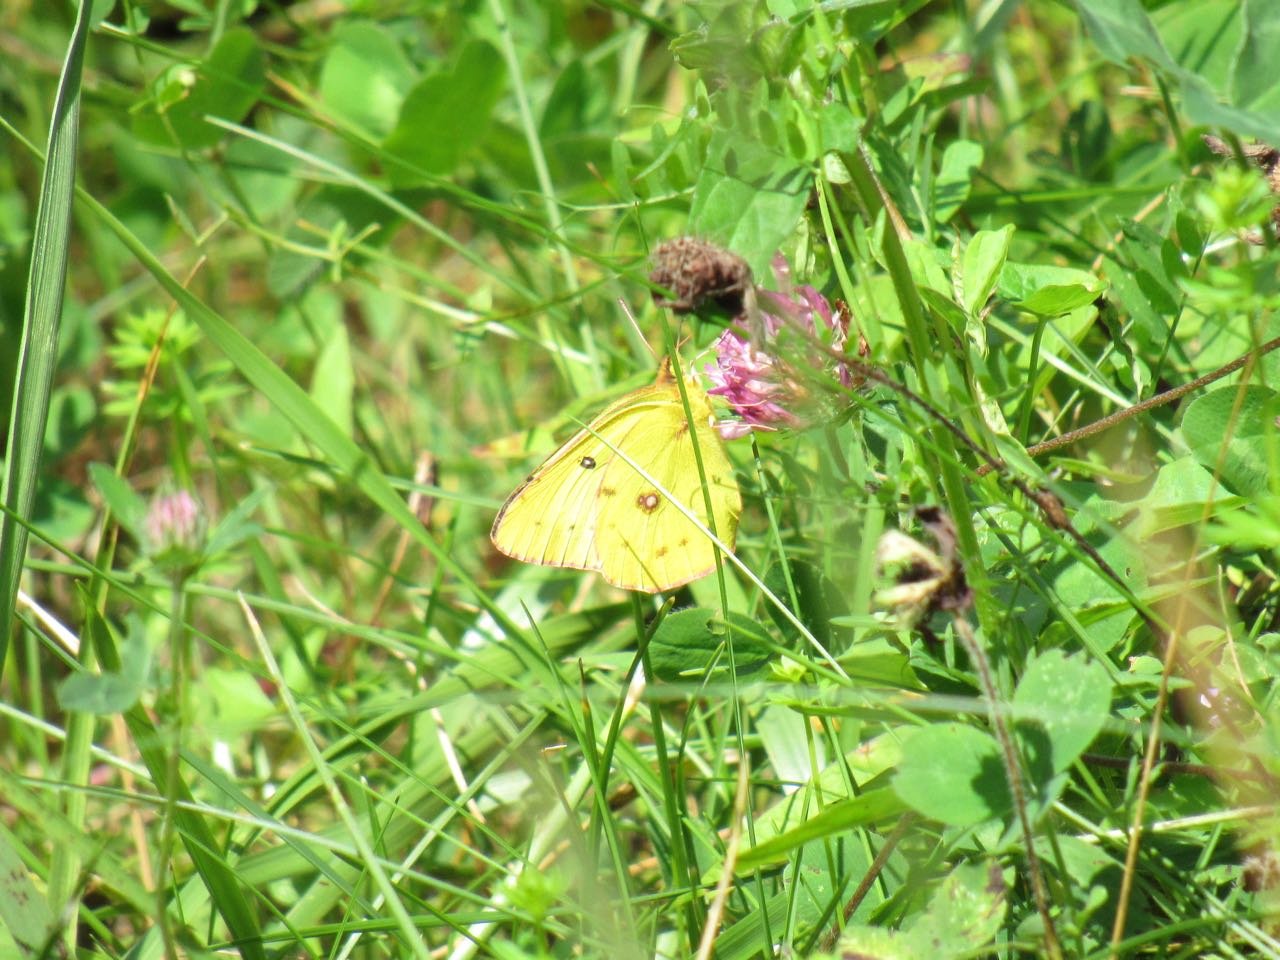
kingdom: Animalia
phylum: Arthropoda
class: Insecta
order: Lepidoptera
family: Pieridae
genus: Colias
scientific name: Colias philodice
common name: Clouded Sulphur
